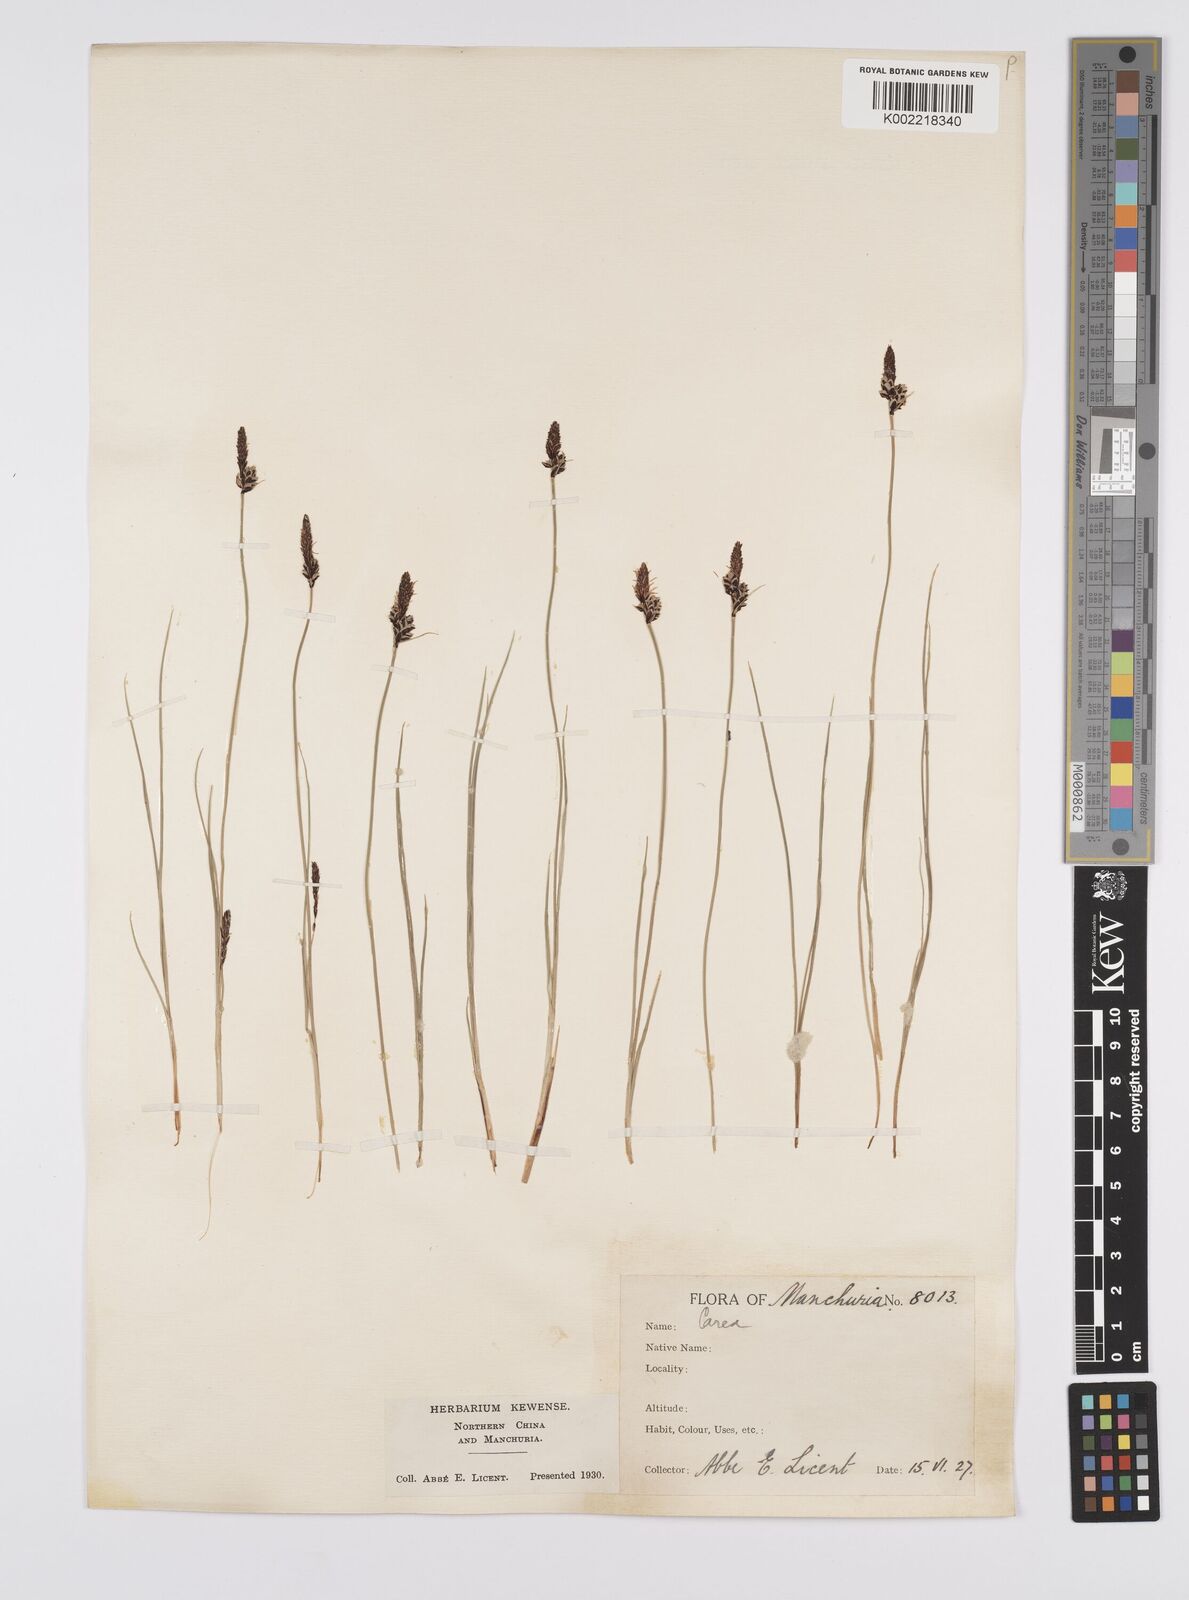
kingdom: Plantae
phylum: Tracheophyta
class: Liliopsida
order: Poales
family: Cyperaceae
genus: Carex
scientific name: Carex meyeriana
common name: Wula sedge
